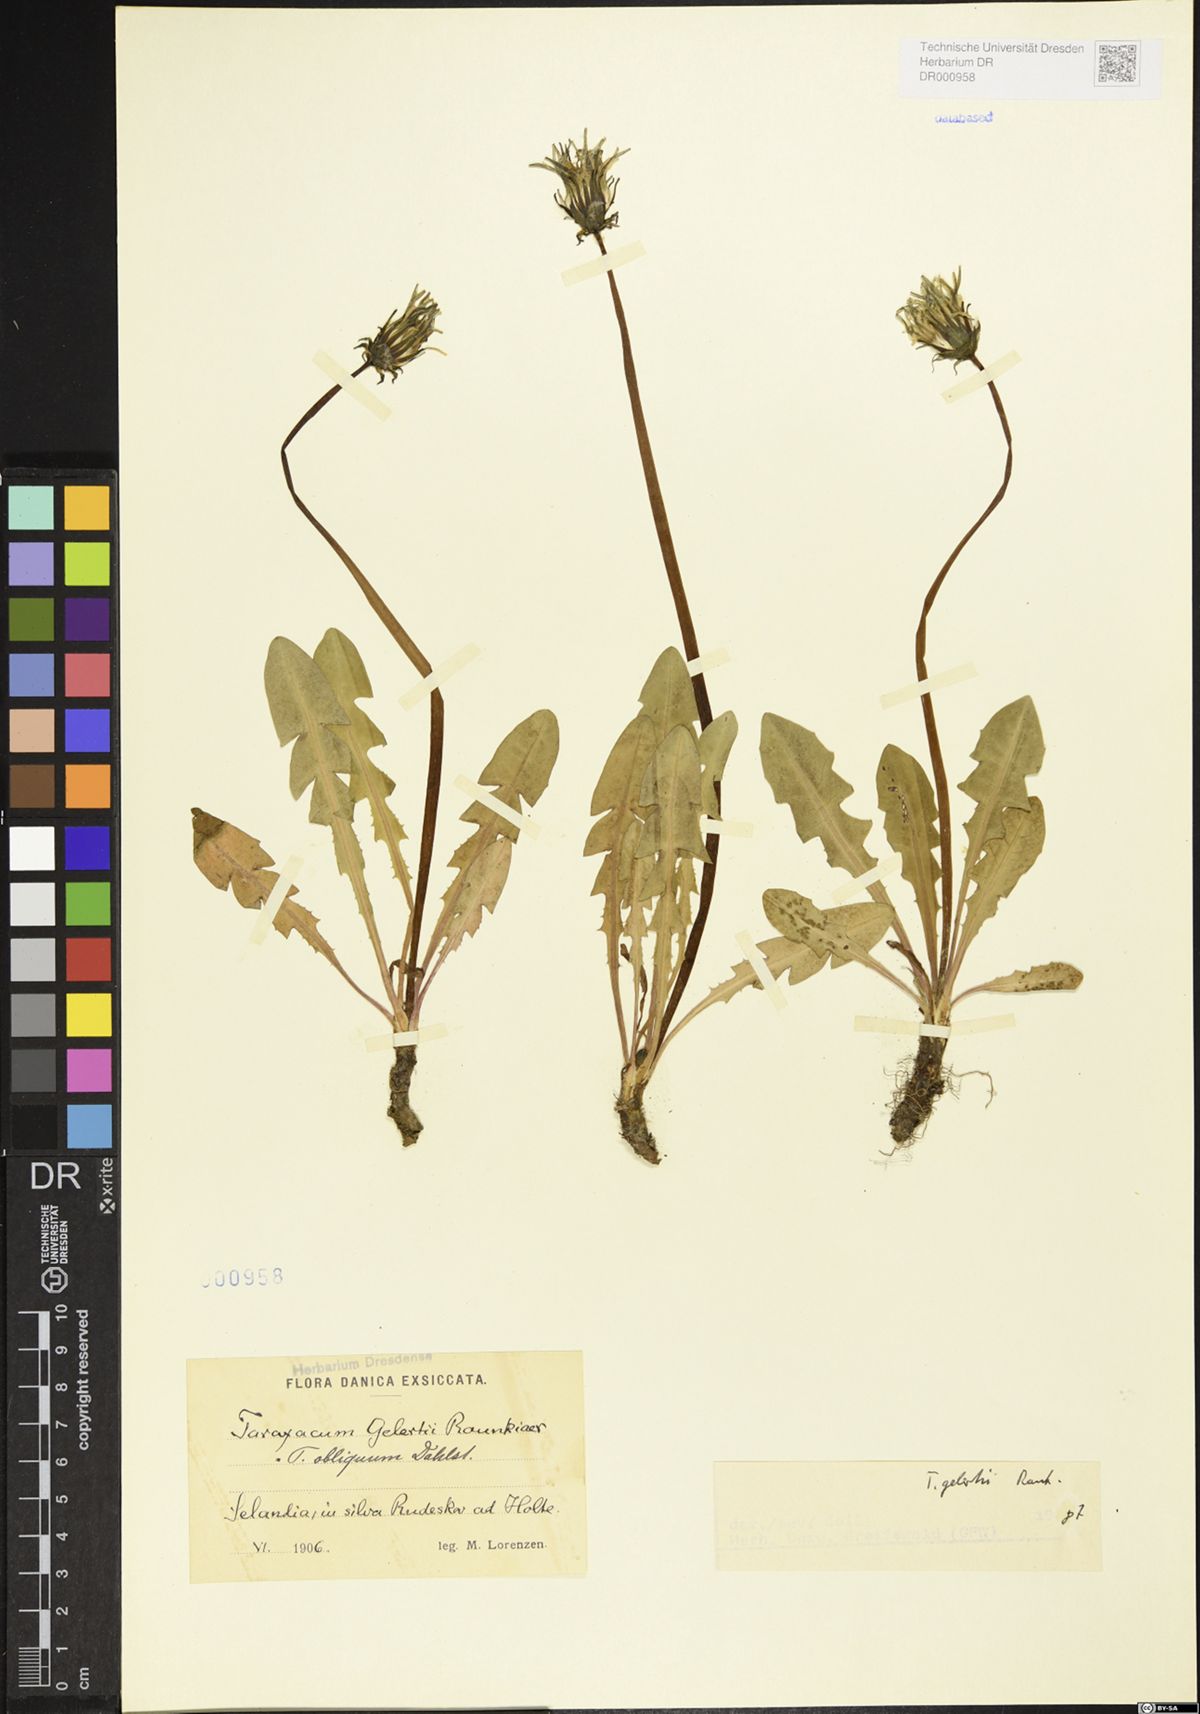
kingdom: Plantae
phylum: Tracheophyta
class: Magnoliopsida
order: Asterales
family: Asteraceae
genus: Taraxacum
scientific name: Taraxacum gelertii
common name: Gelert's dandelion
